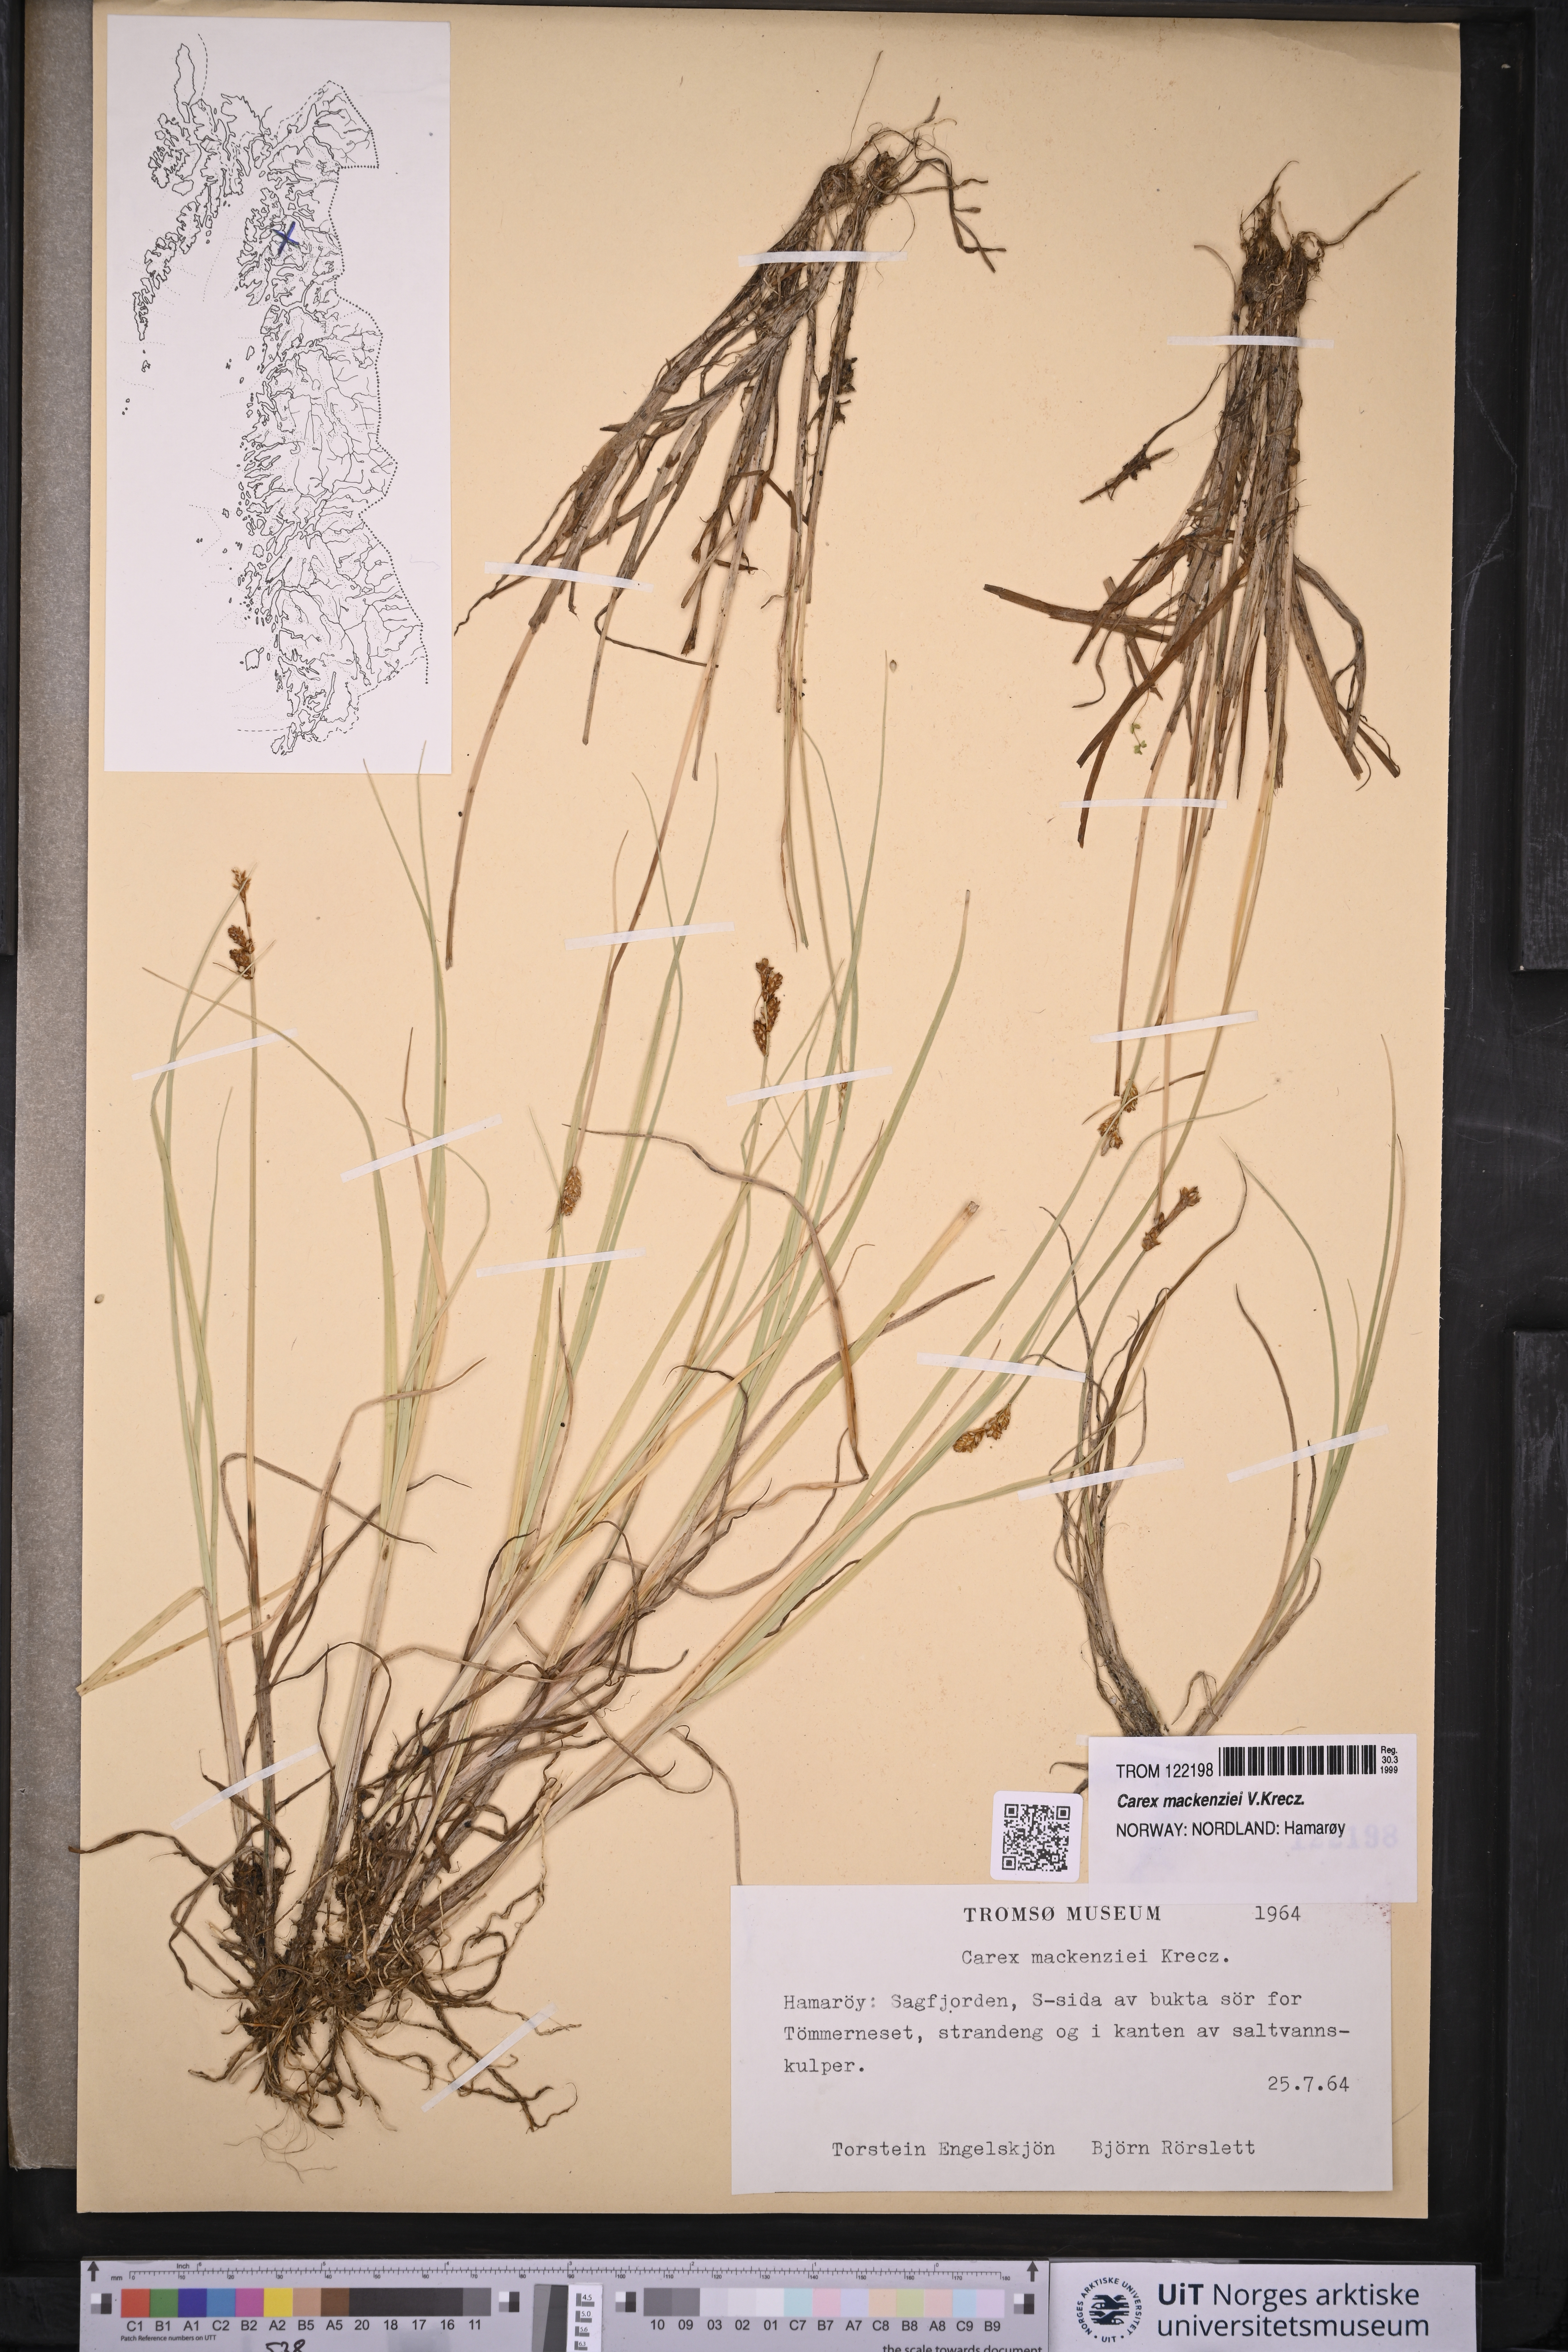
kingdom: Plantae
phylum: Tracheophyta
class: Liliopsida
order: Poales
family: Cyperaceae
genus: Carex
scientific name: Carex mackenziei
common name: Mackenzie's sedge
